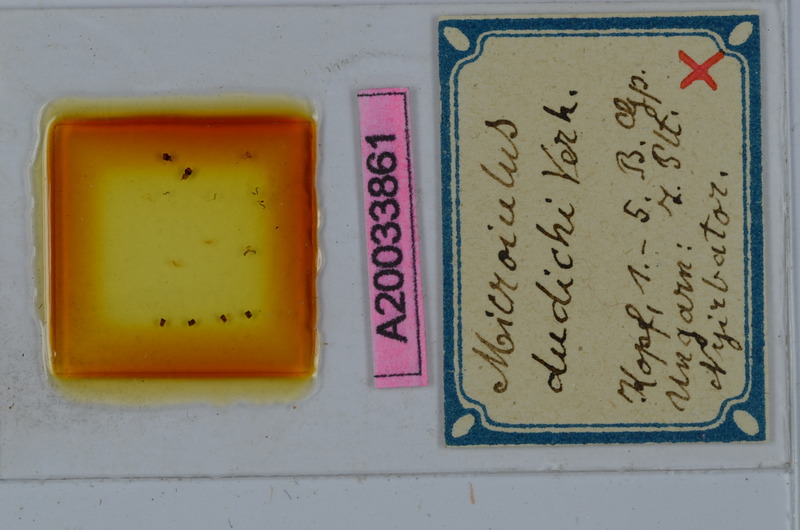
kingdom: Animalia
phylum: Arthropoda
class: Diplopoda
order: Julida
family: Julidae
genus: Xestoiulus
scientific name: Xestoiulus laeticollis
